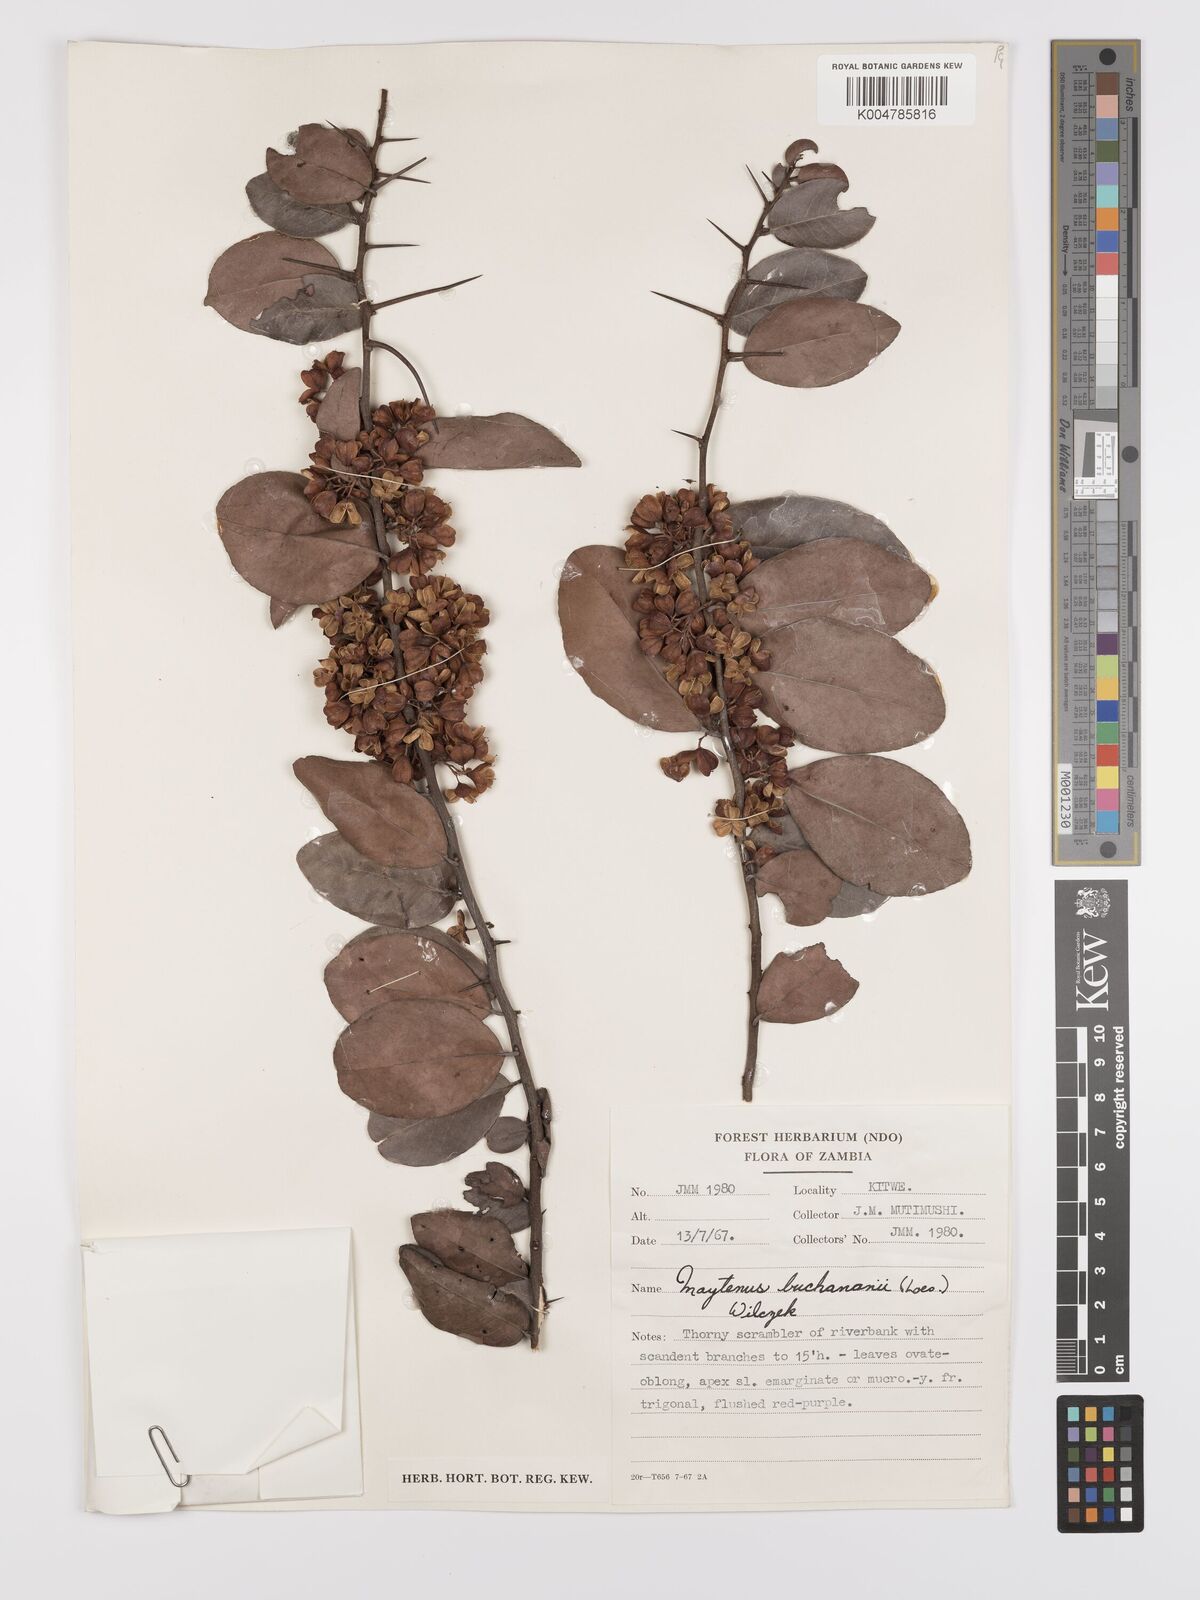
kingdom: Plantae
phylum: Tracheophyta
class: Magnoliopsida
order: Celastrales
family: Celastraceae
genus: Gymnosporia
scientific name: Gymnosporia buchananii
